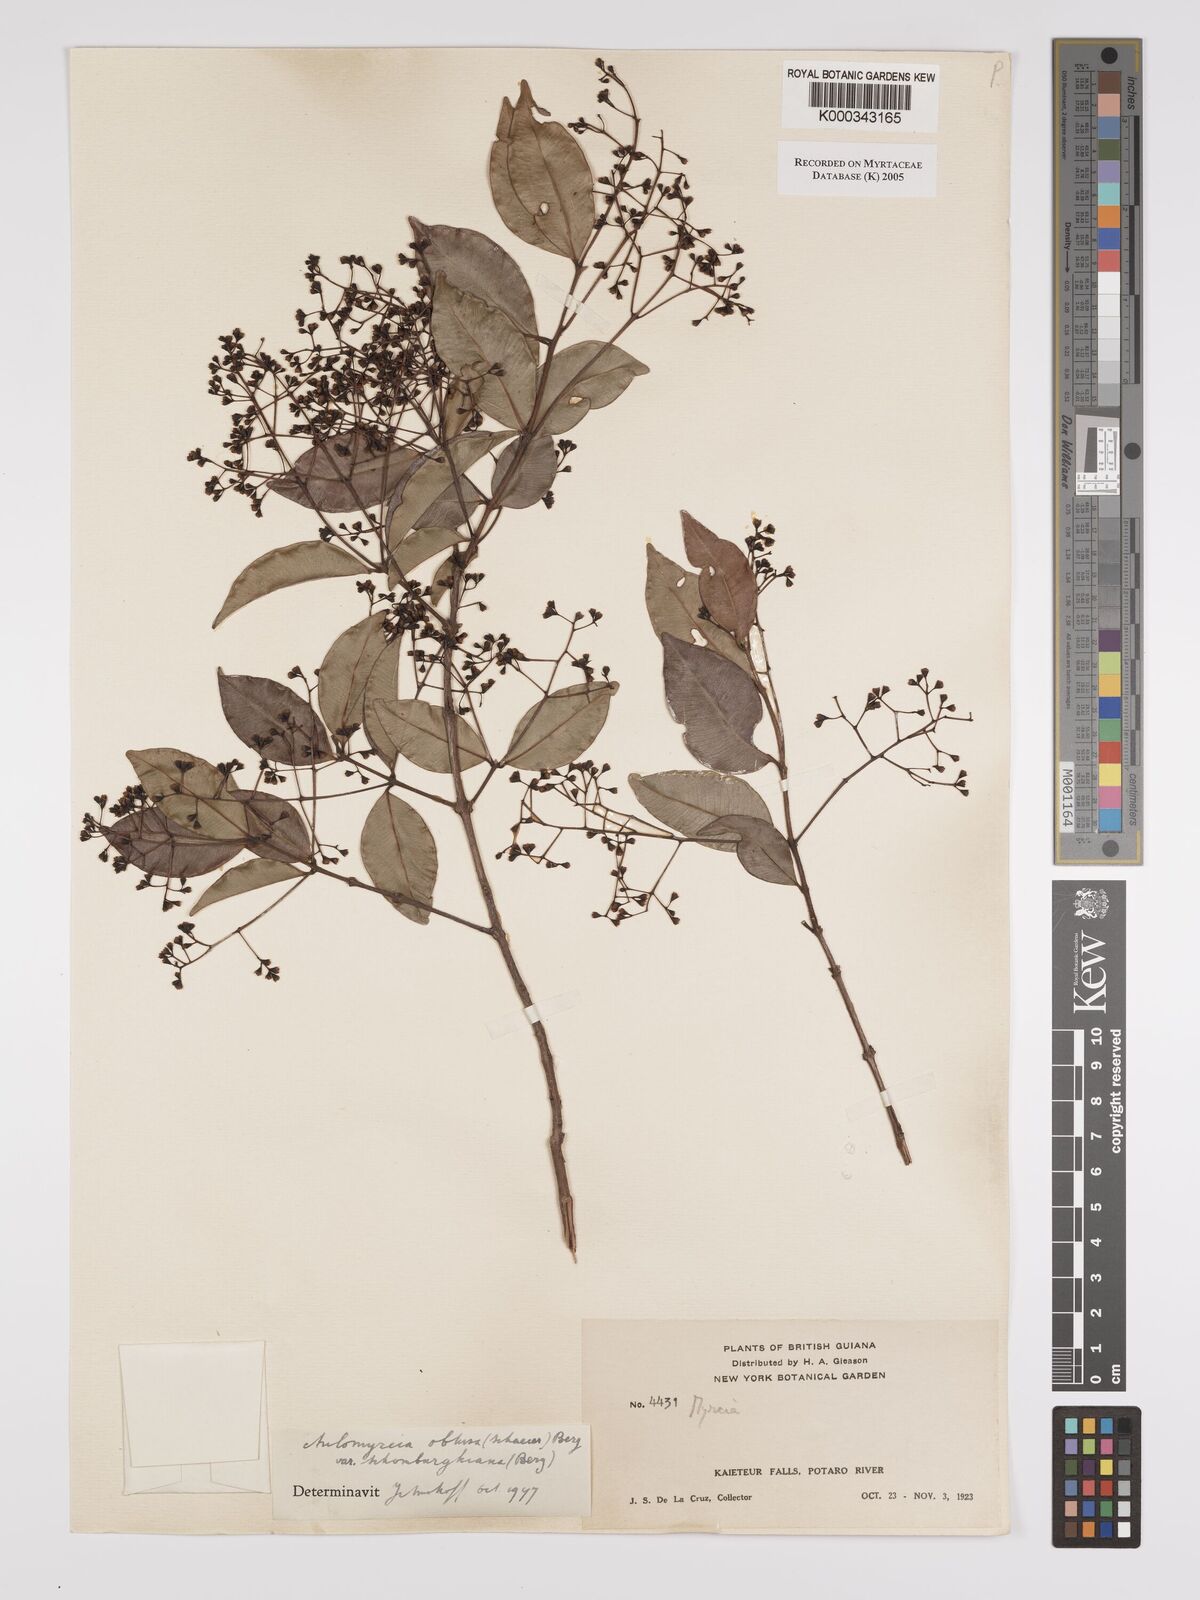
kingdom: Plantae
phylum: Tracheophyta
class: Magnoliopsida
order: Myrtales
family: Myrtaceae
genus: Myrcia
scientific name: Myrcia guianensis
